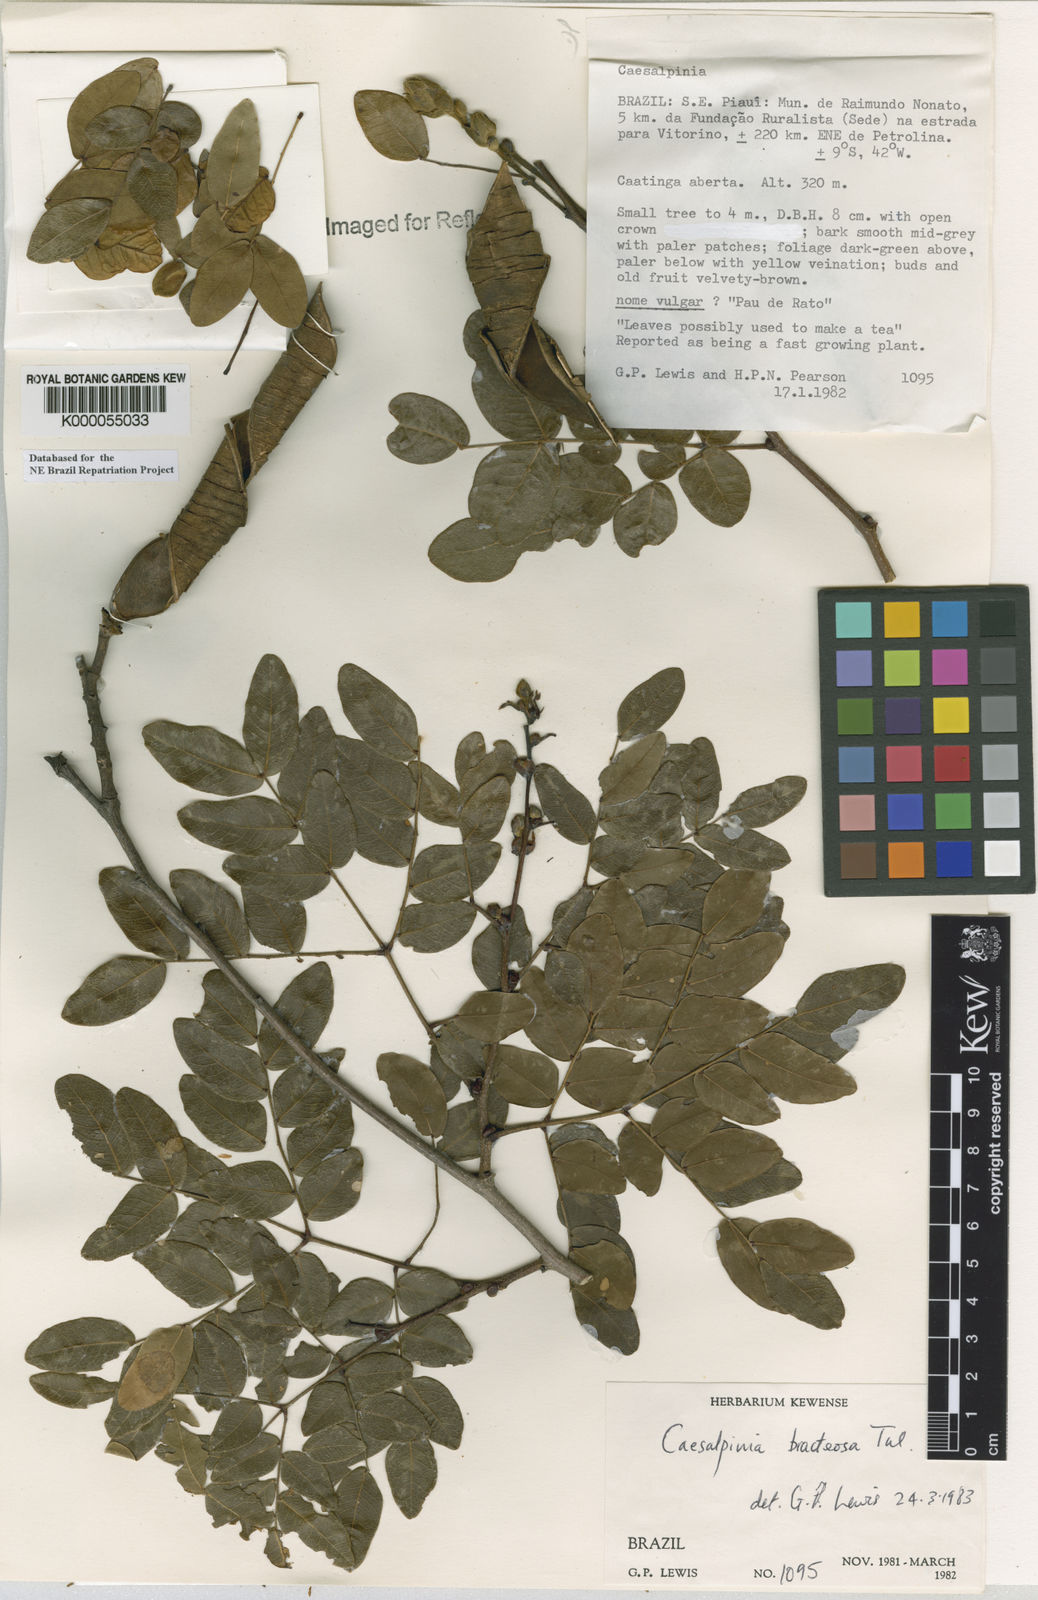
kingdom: Plantae
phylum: Tracheophyta
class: Magnoliopsida
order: Fabales
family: Fabaceae
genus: Cenostigma
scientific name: Cenostigma bracteosum
